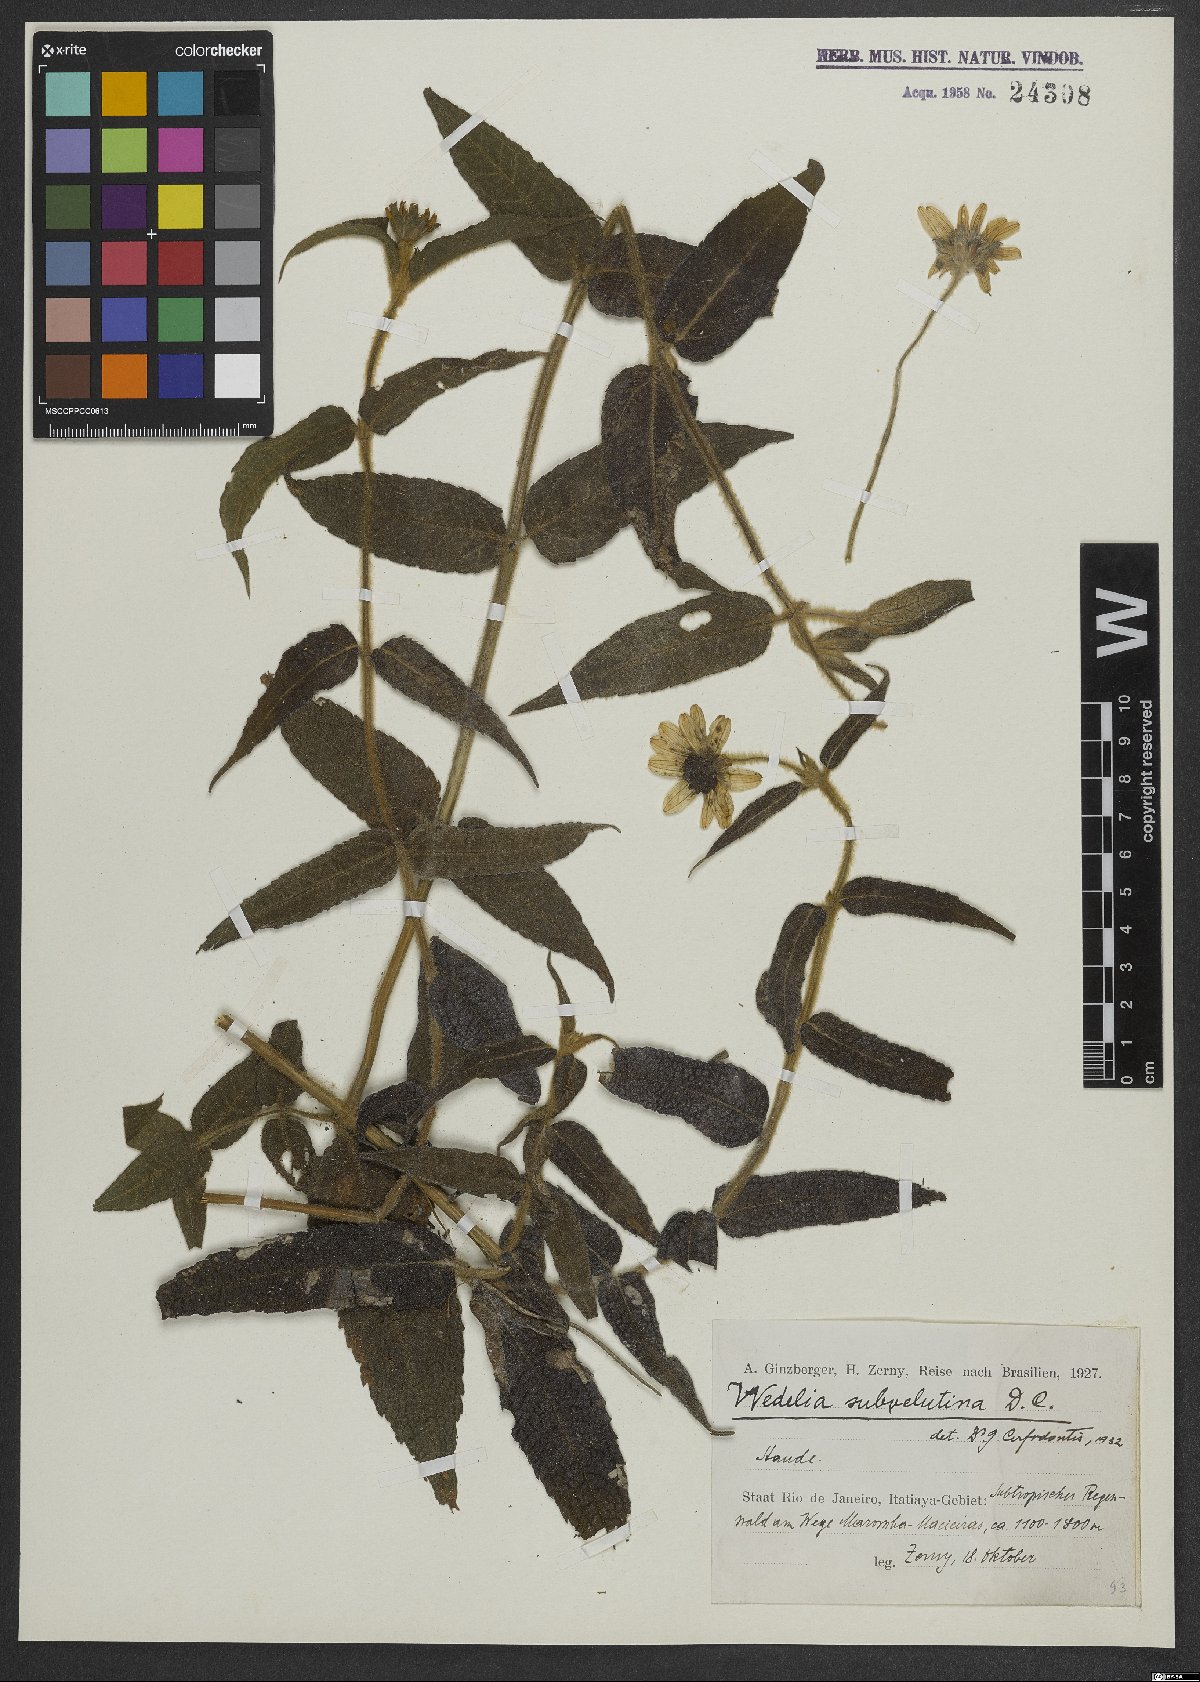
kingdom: Plantae
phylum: Tracheophyta
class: Magnoliopsida
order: Asterales
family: Asteraceae
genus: Wedelia
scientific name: Wedelia subvelutina
